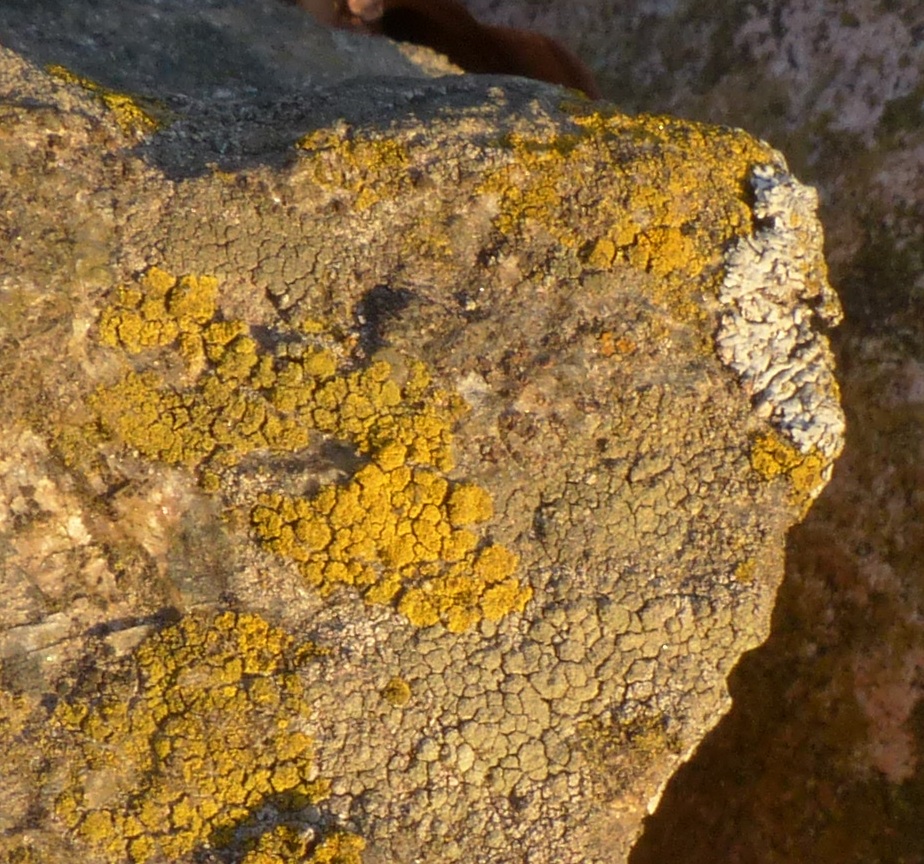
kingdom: Fungi
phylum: Ascomycota
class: Candelariomycetes
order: Candelariales
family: Candelariaceae
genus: Candelariella
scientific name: Candelariella vitellina
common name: almindelig æggeblommelav
